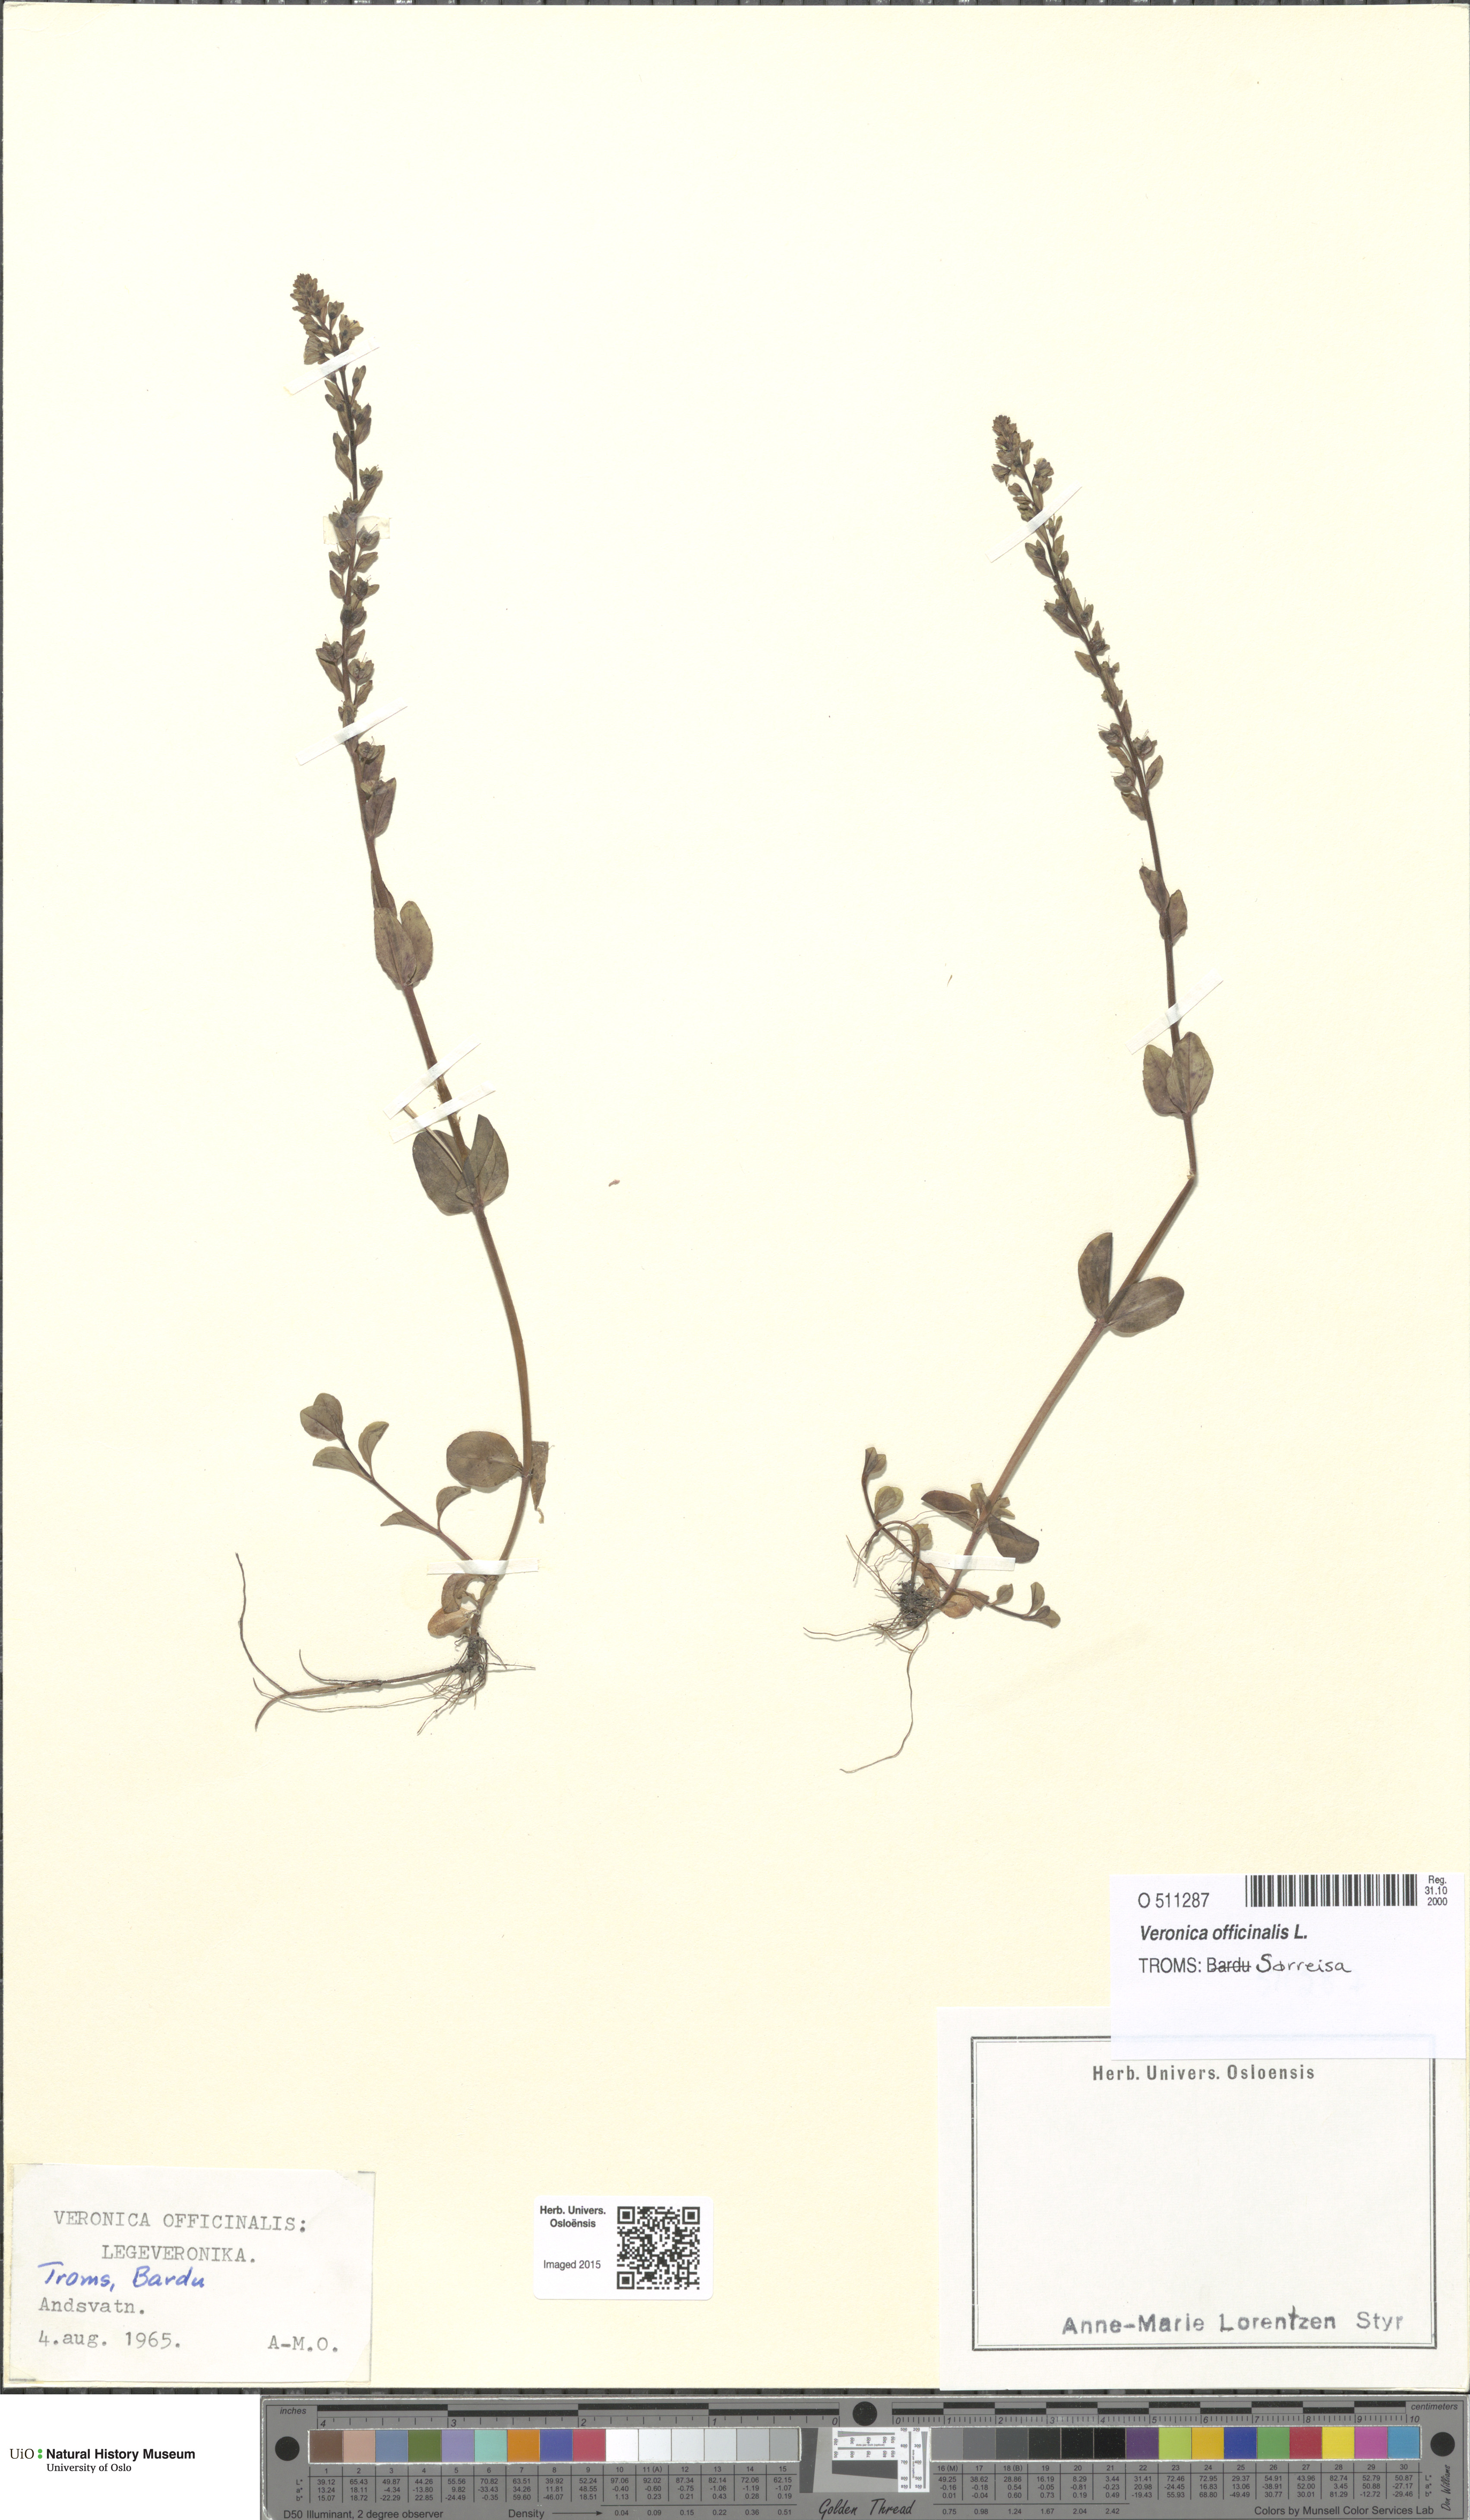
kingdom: Plantae
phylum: Tracheophyta
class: Magnoliopsida
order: Lamiales
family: Plantaginaceae
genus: Veronica
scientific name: Veronica officinalis
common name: Common speedwell
